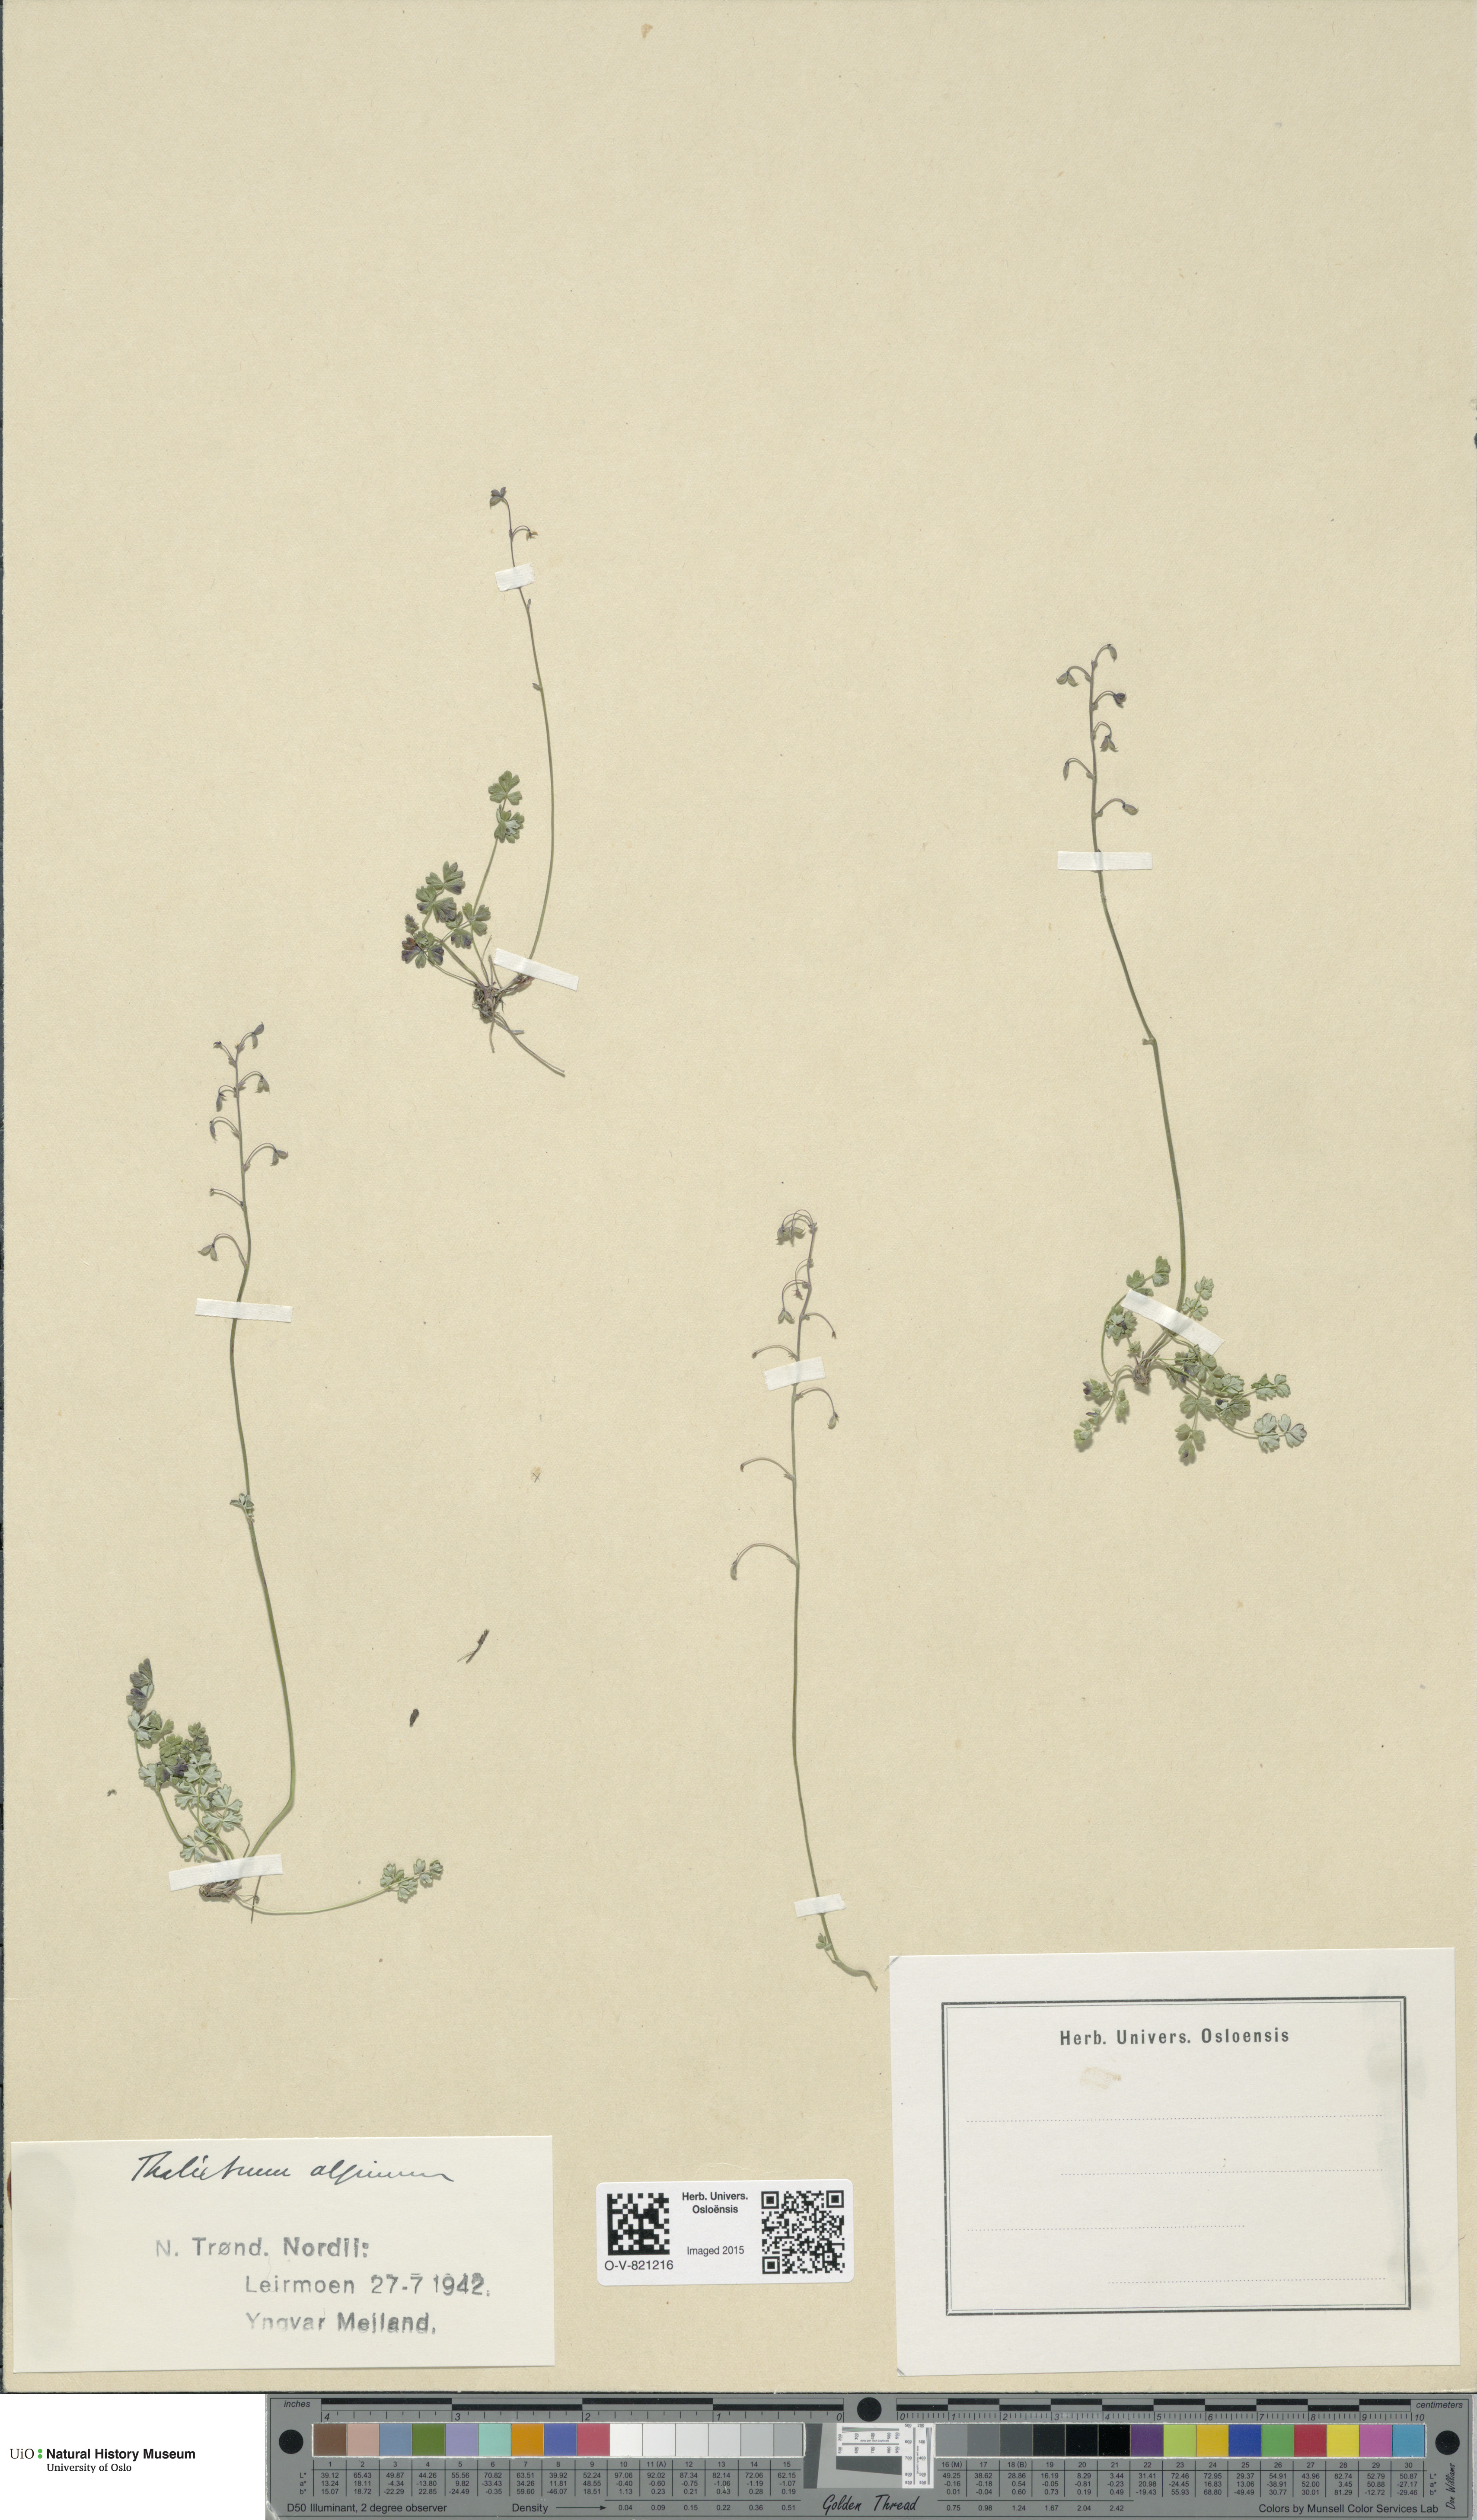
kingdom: Plantae
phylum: Tracheophyta
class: Magnoliopsida
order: Ranunculales
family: Ranunculaceae
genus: Thalictrum
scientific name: Thalictrum alpinum
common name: Alpine meadow-rue
